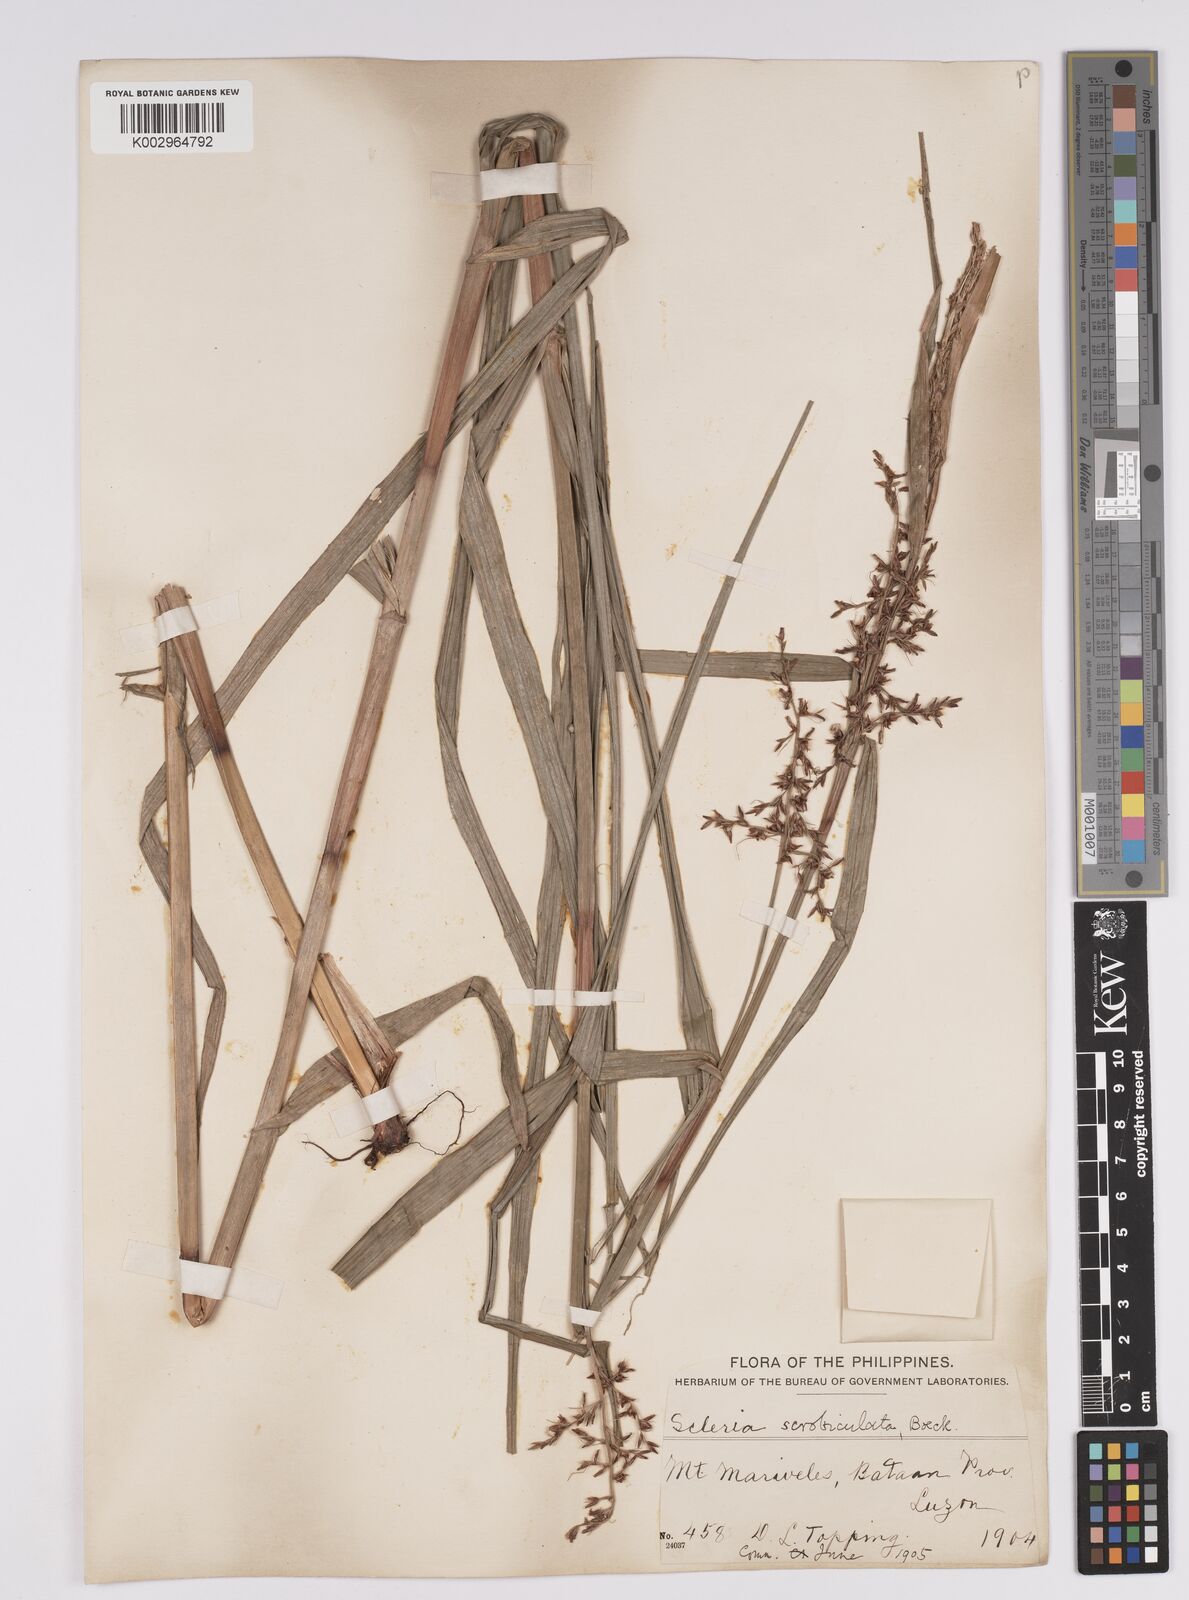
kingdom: Plantae
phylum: Tracheophyta
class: Liliopsida
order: Poales
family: Cyperaceae
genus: Scleria
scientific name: Scleria scrobiculata
